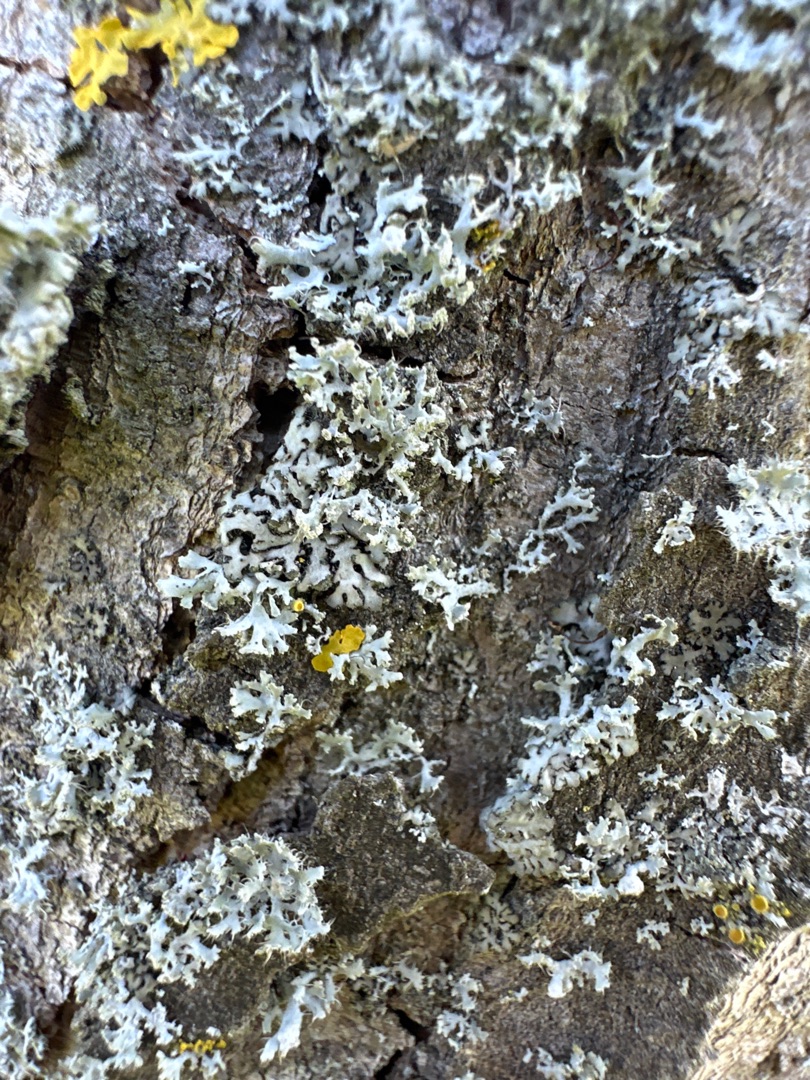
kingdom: Fungi
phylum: Ascomycota
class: Lecanoromycetes
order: Caliciales
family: Physciaceae
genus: Physcia
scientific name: Physcia tenella
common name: Spæd rosetlav
